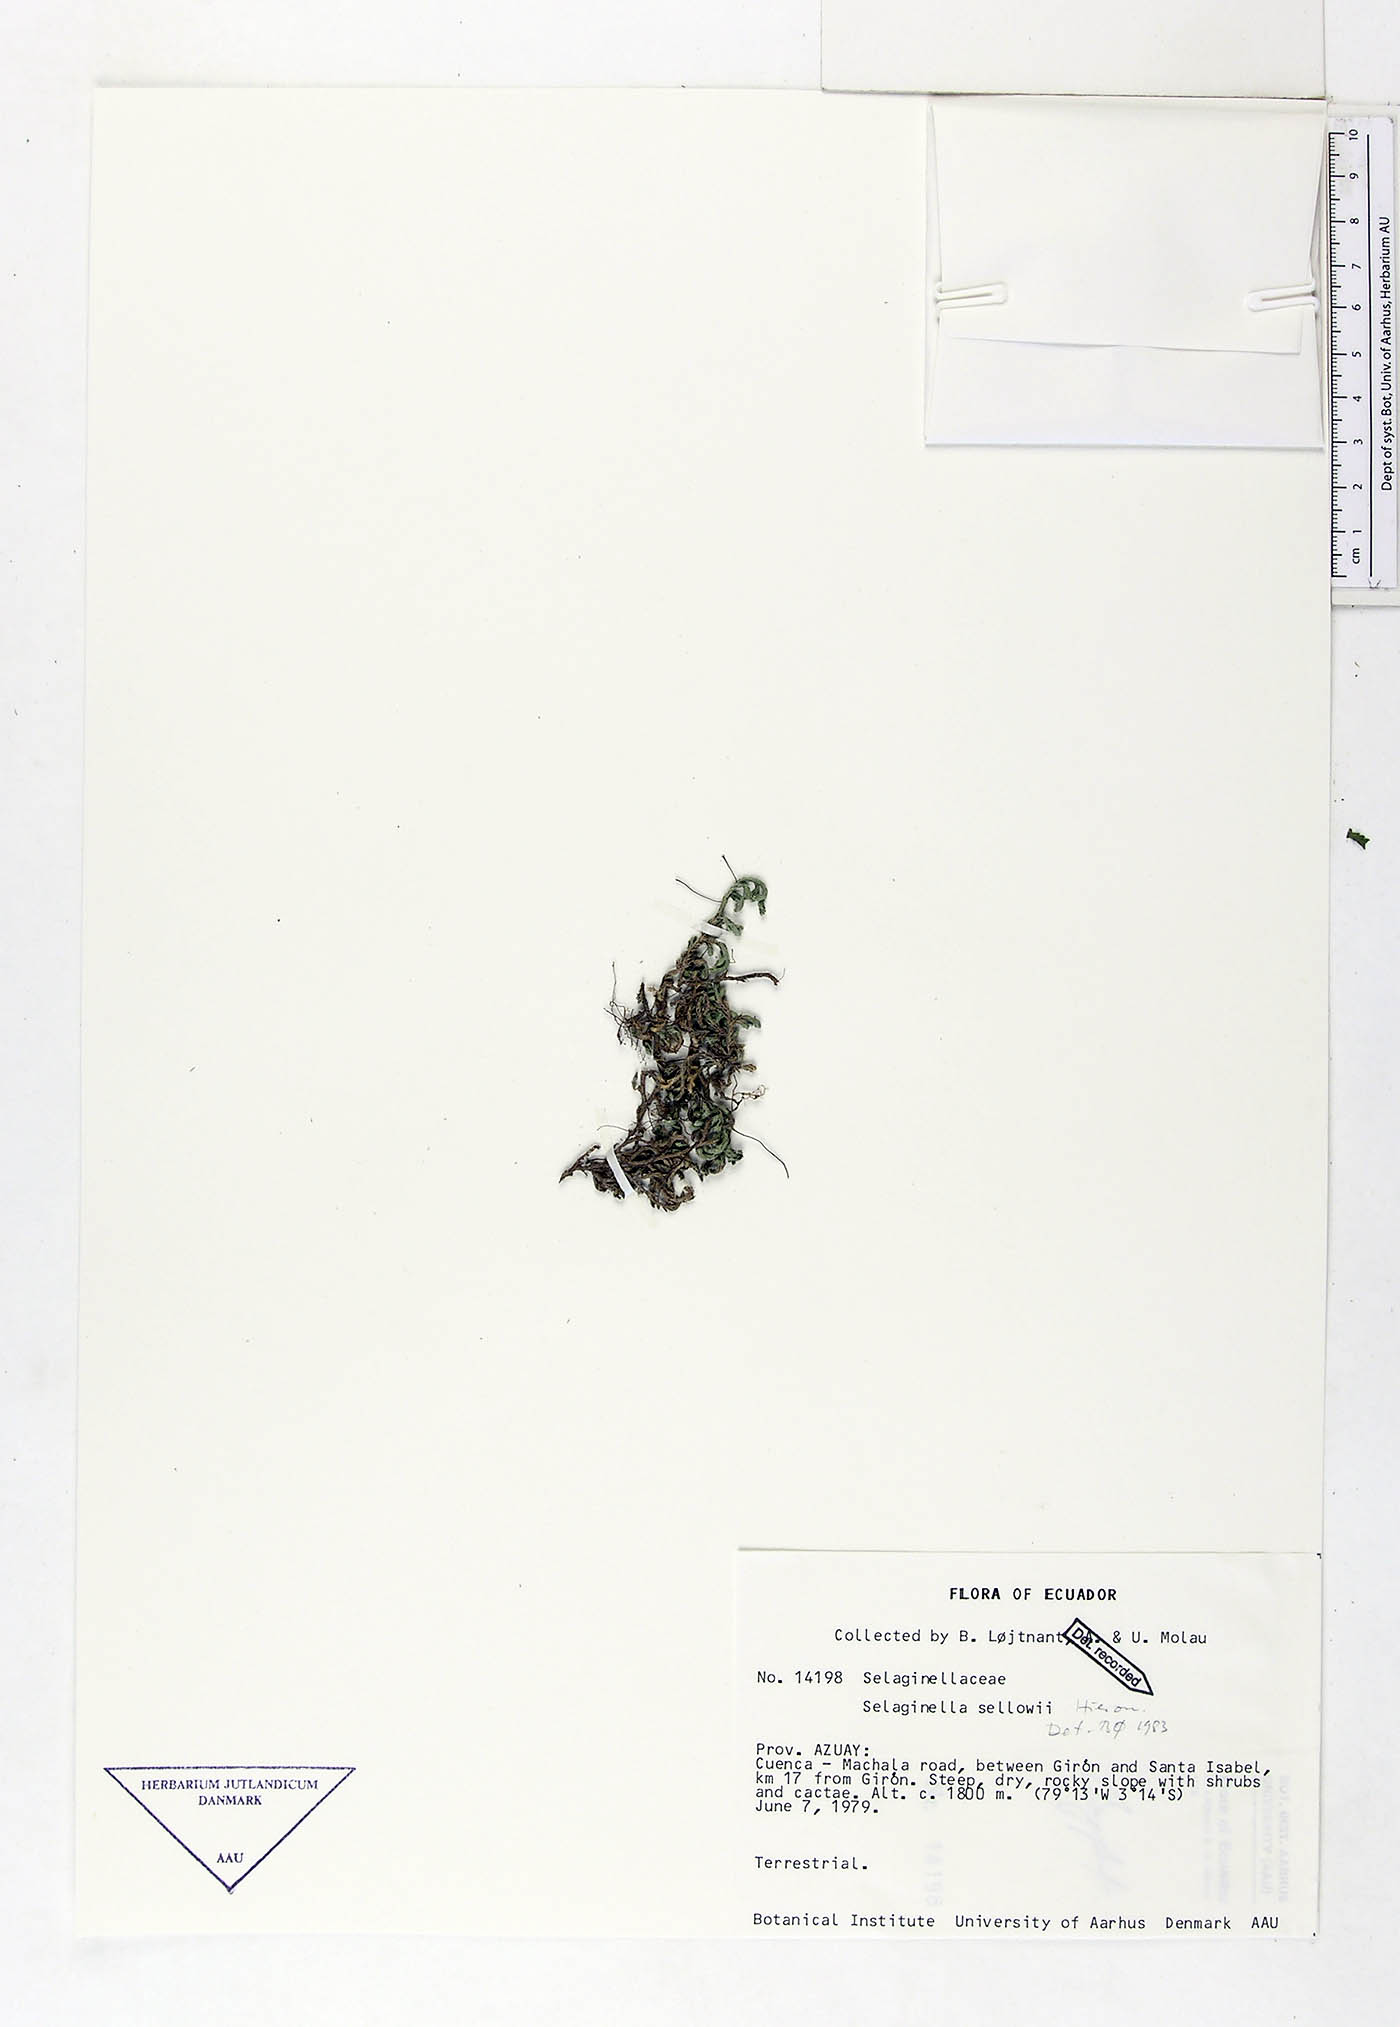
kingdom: Plantae
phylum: Tracheophyta
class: Lycopodiopsida
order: Selaginellales
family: Selaginellaceae
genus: Selaginella
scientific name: Selaginella sellowii
